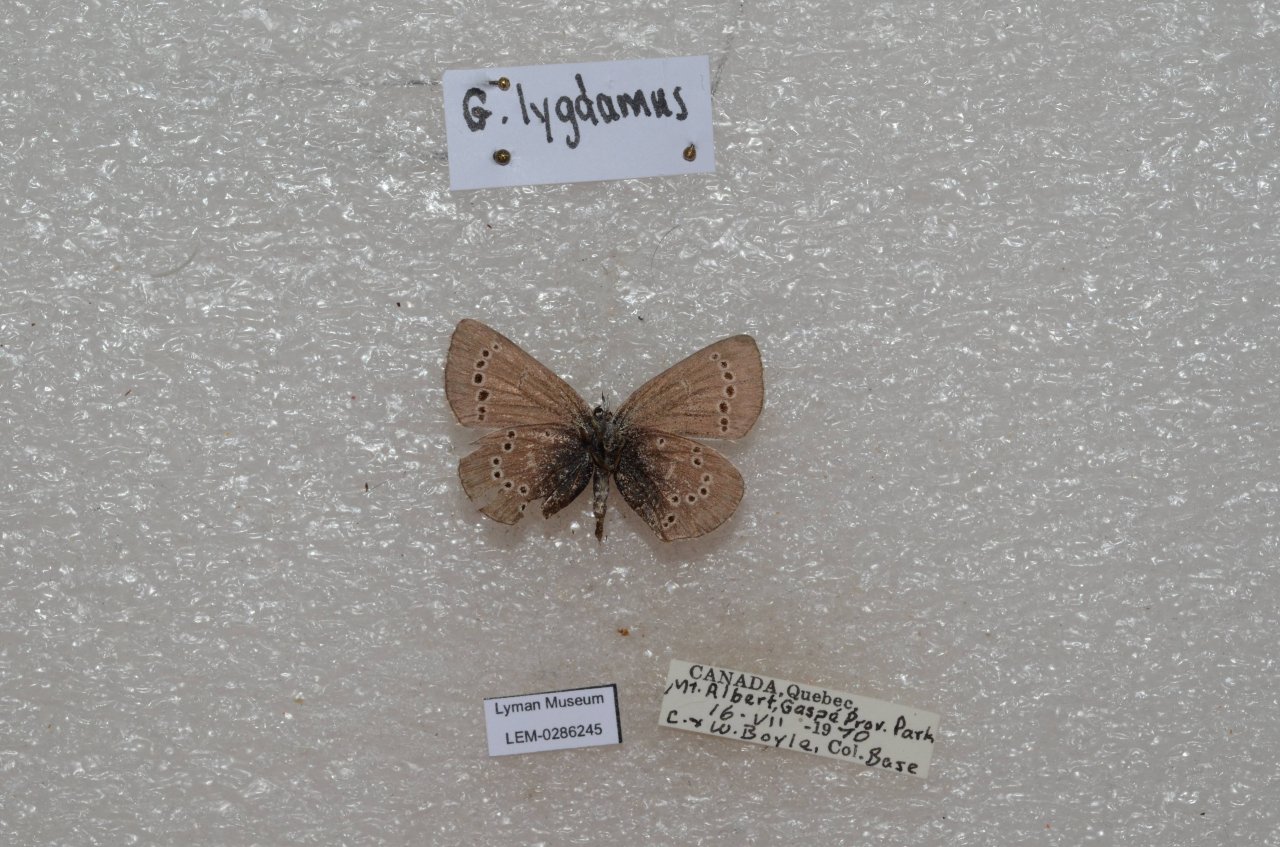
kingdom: Animalia
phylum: Arthropoda
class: Insecta
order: Lepidoptera
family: Lycaenidae
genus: Glaucopsyche
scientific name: Glaucopsyche lygdamus
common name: Silvery Blue
